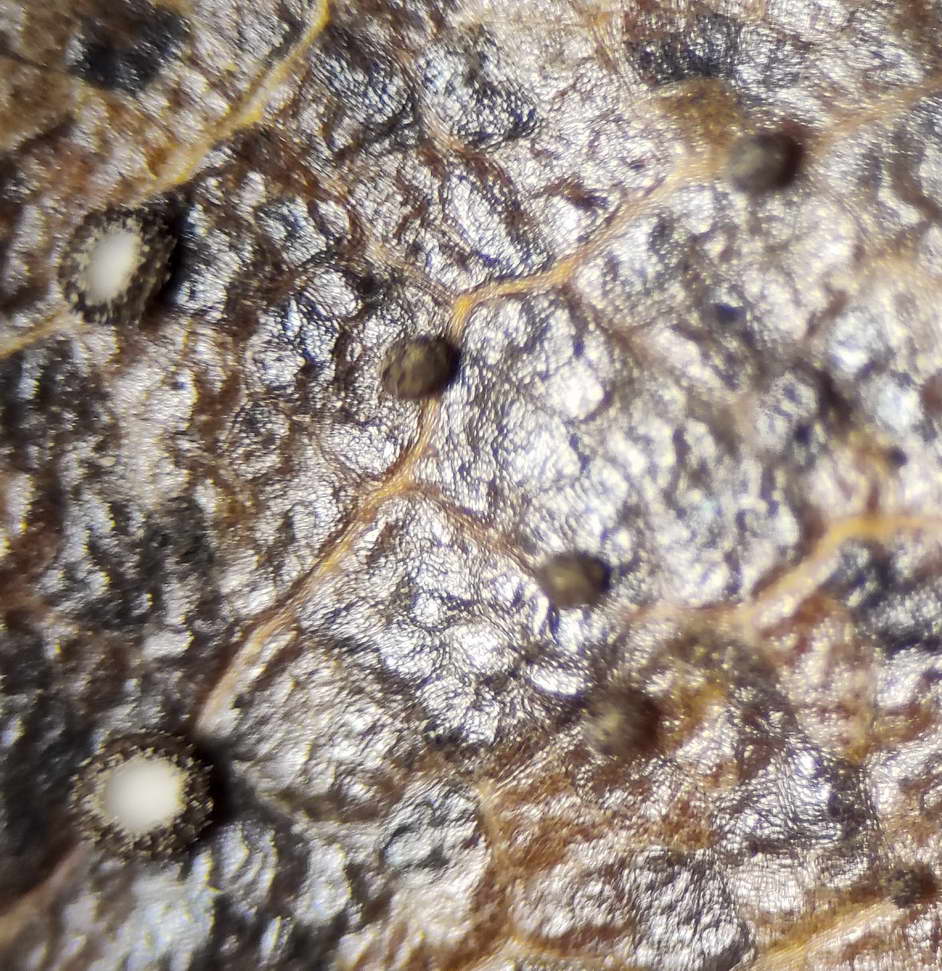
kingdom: Fungi
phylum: Ascomycota
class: Leotiomycetes
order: Helotiales
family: Lachnaceae
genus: Brunnipila
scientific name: Brunnipila brunneola
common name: læderbrun frynseskive
